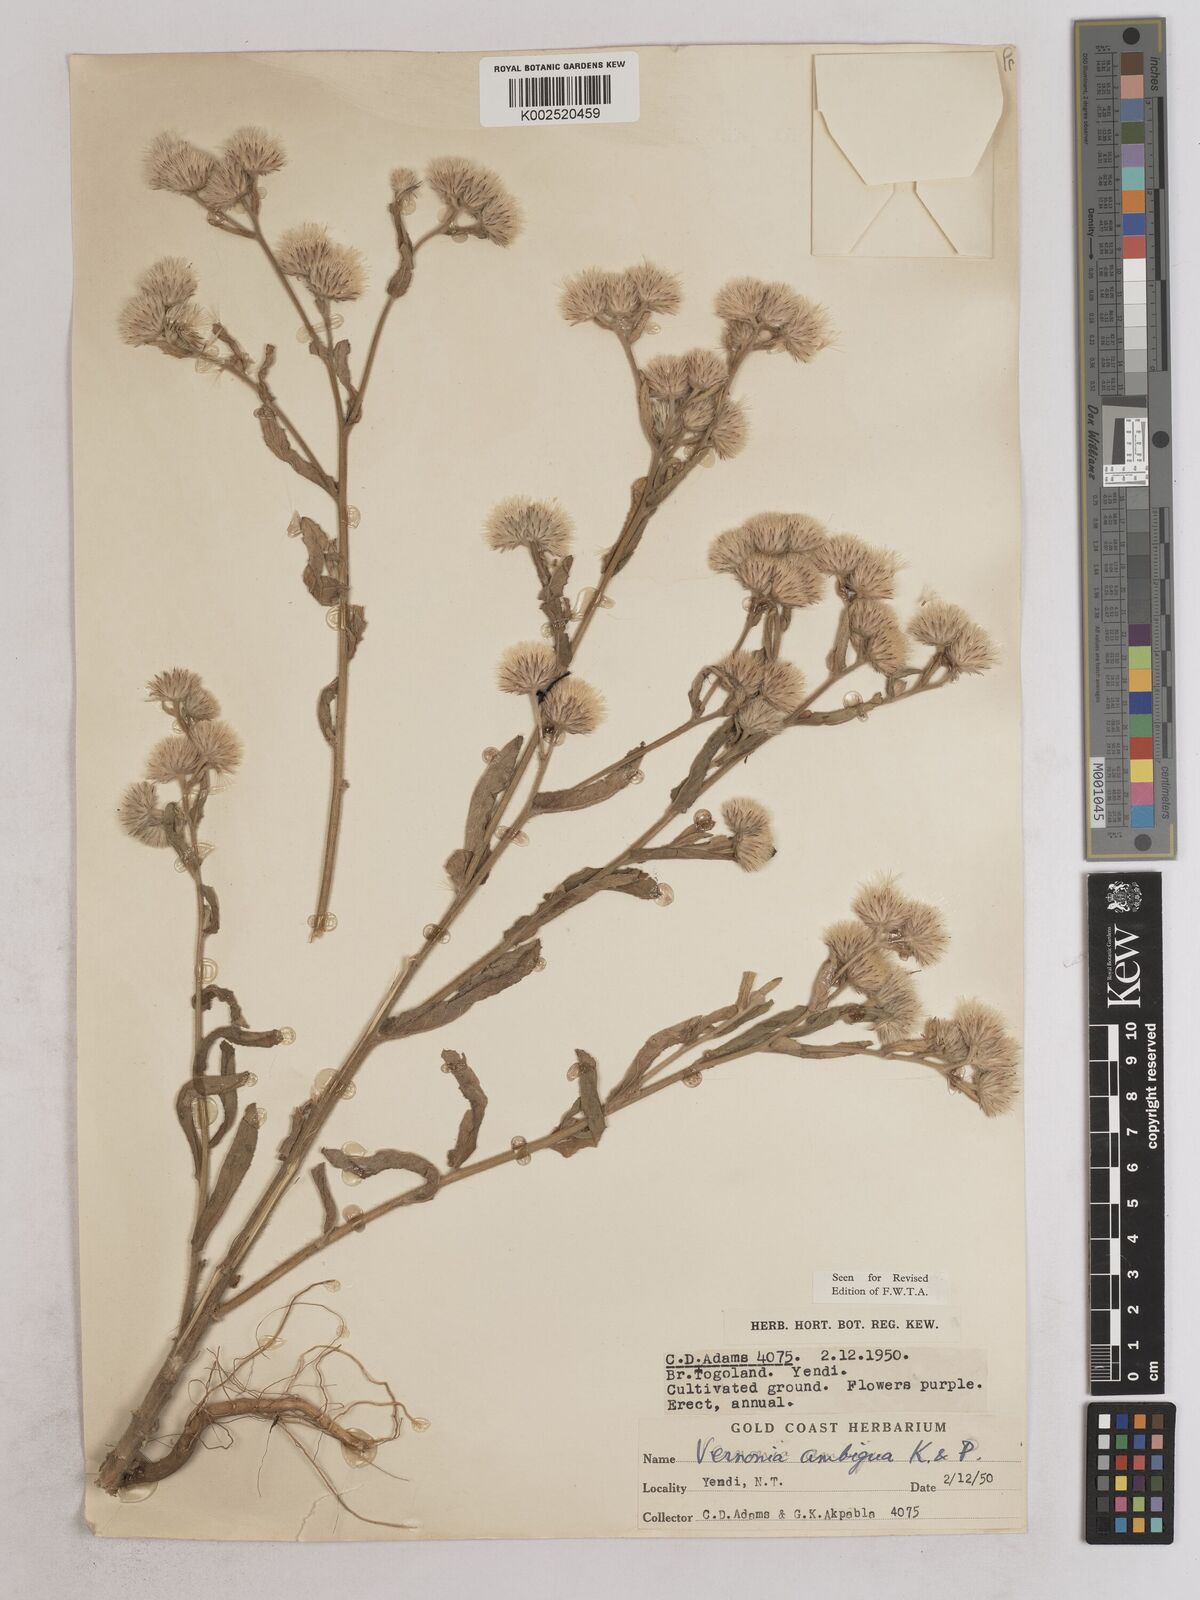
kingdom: Plantae
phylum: Tracheophyta
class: Magnoliopsida
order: Asterales
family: Asteraceae
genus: Vernoniastrum
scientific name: Vernoniastrum ambiguum
